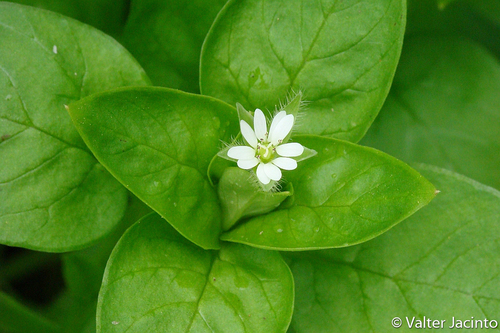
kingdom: Plantae
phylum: Tracheophyta
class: Magnoliopsida
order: Caryophyllales
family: Caryophyllaceae
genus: Stellaria
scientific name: Stellaria media
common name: Common chickweed
